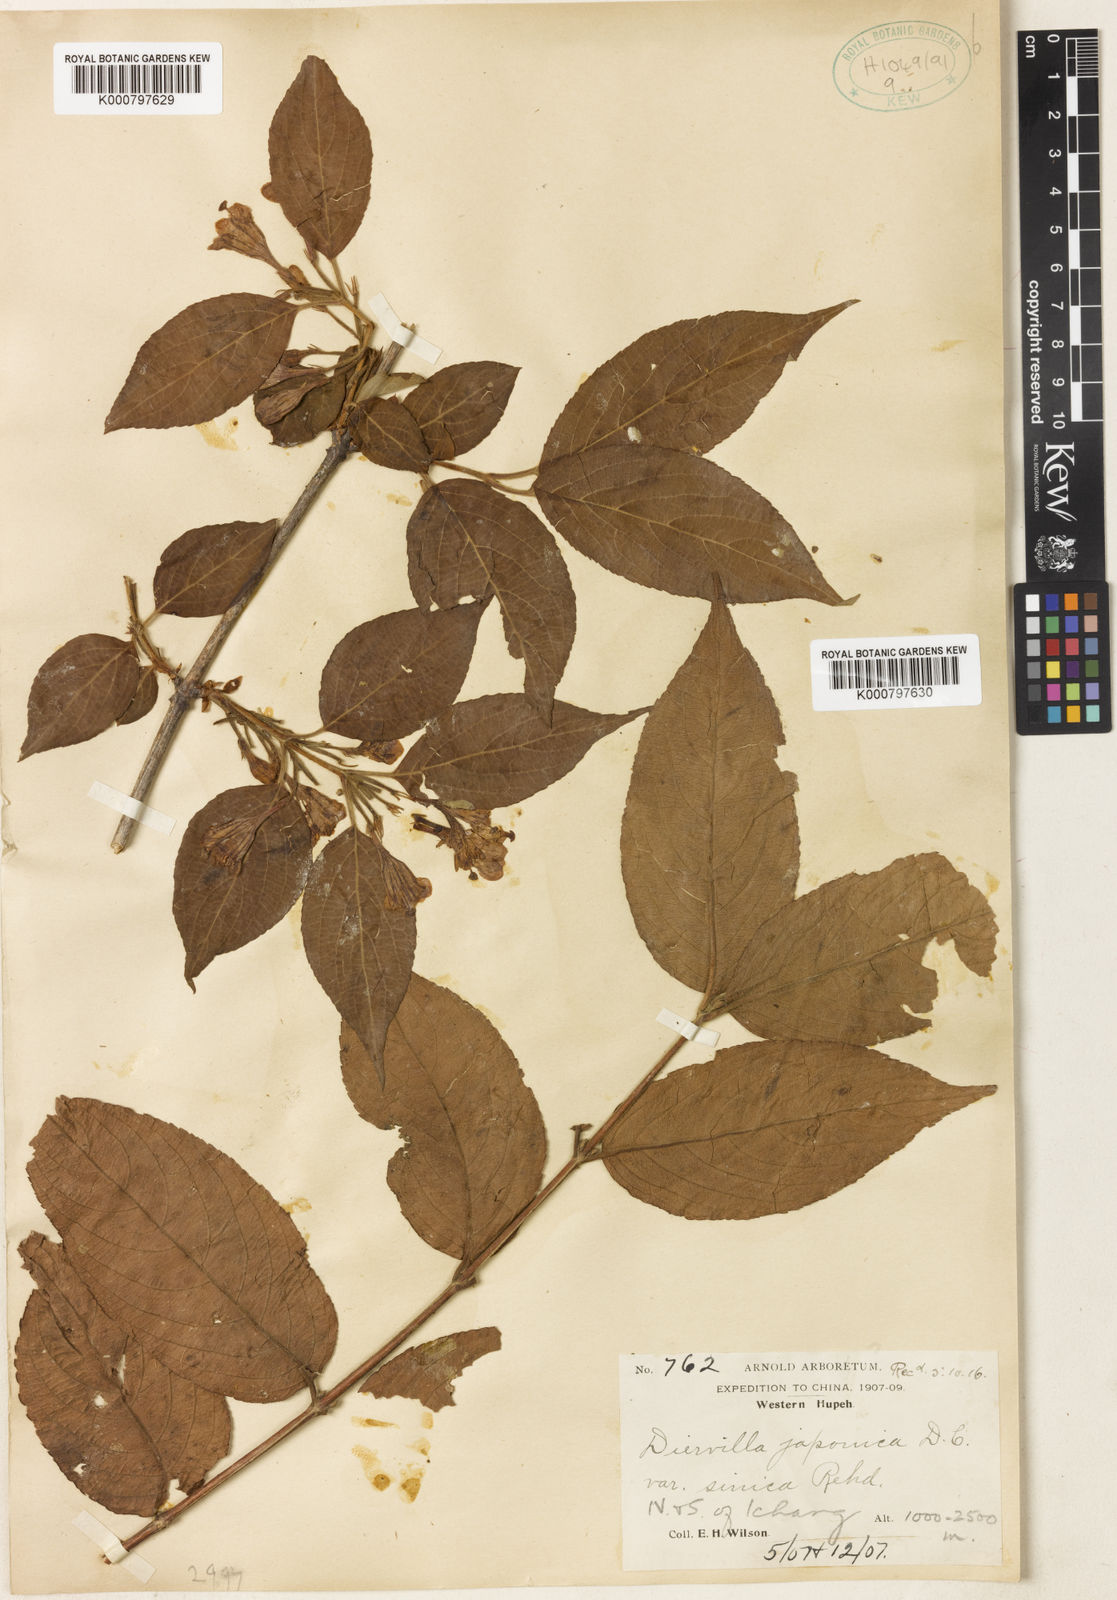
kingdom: Plantae
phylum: Tracheophyta
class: Magnoliopsida
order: Dipsacales
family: Caprifoliaceae
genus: Weigela
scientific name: Weigela japonica
